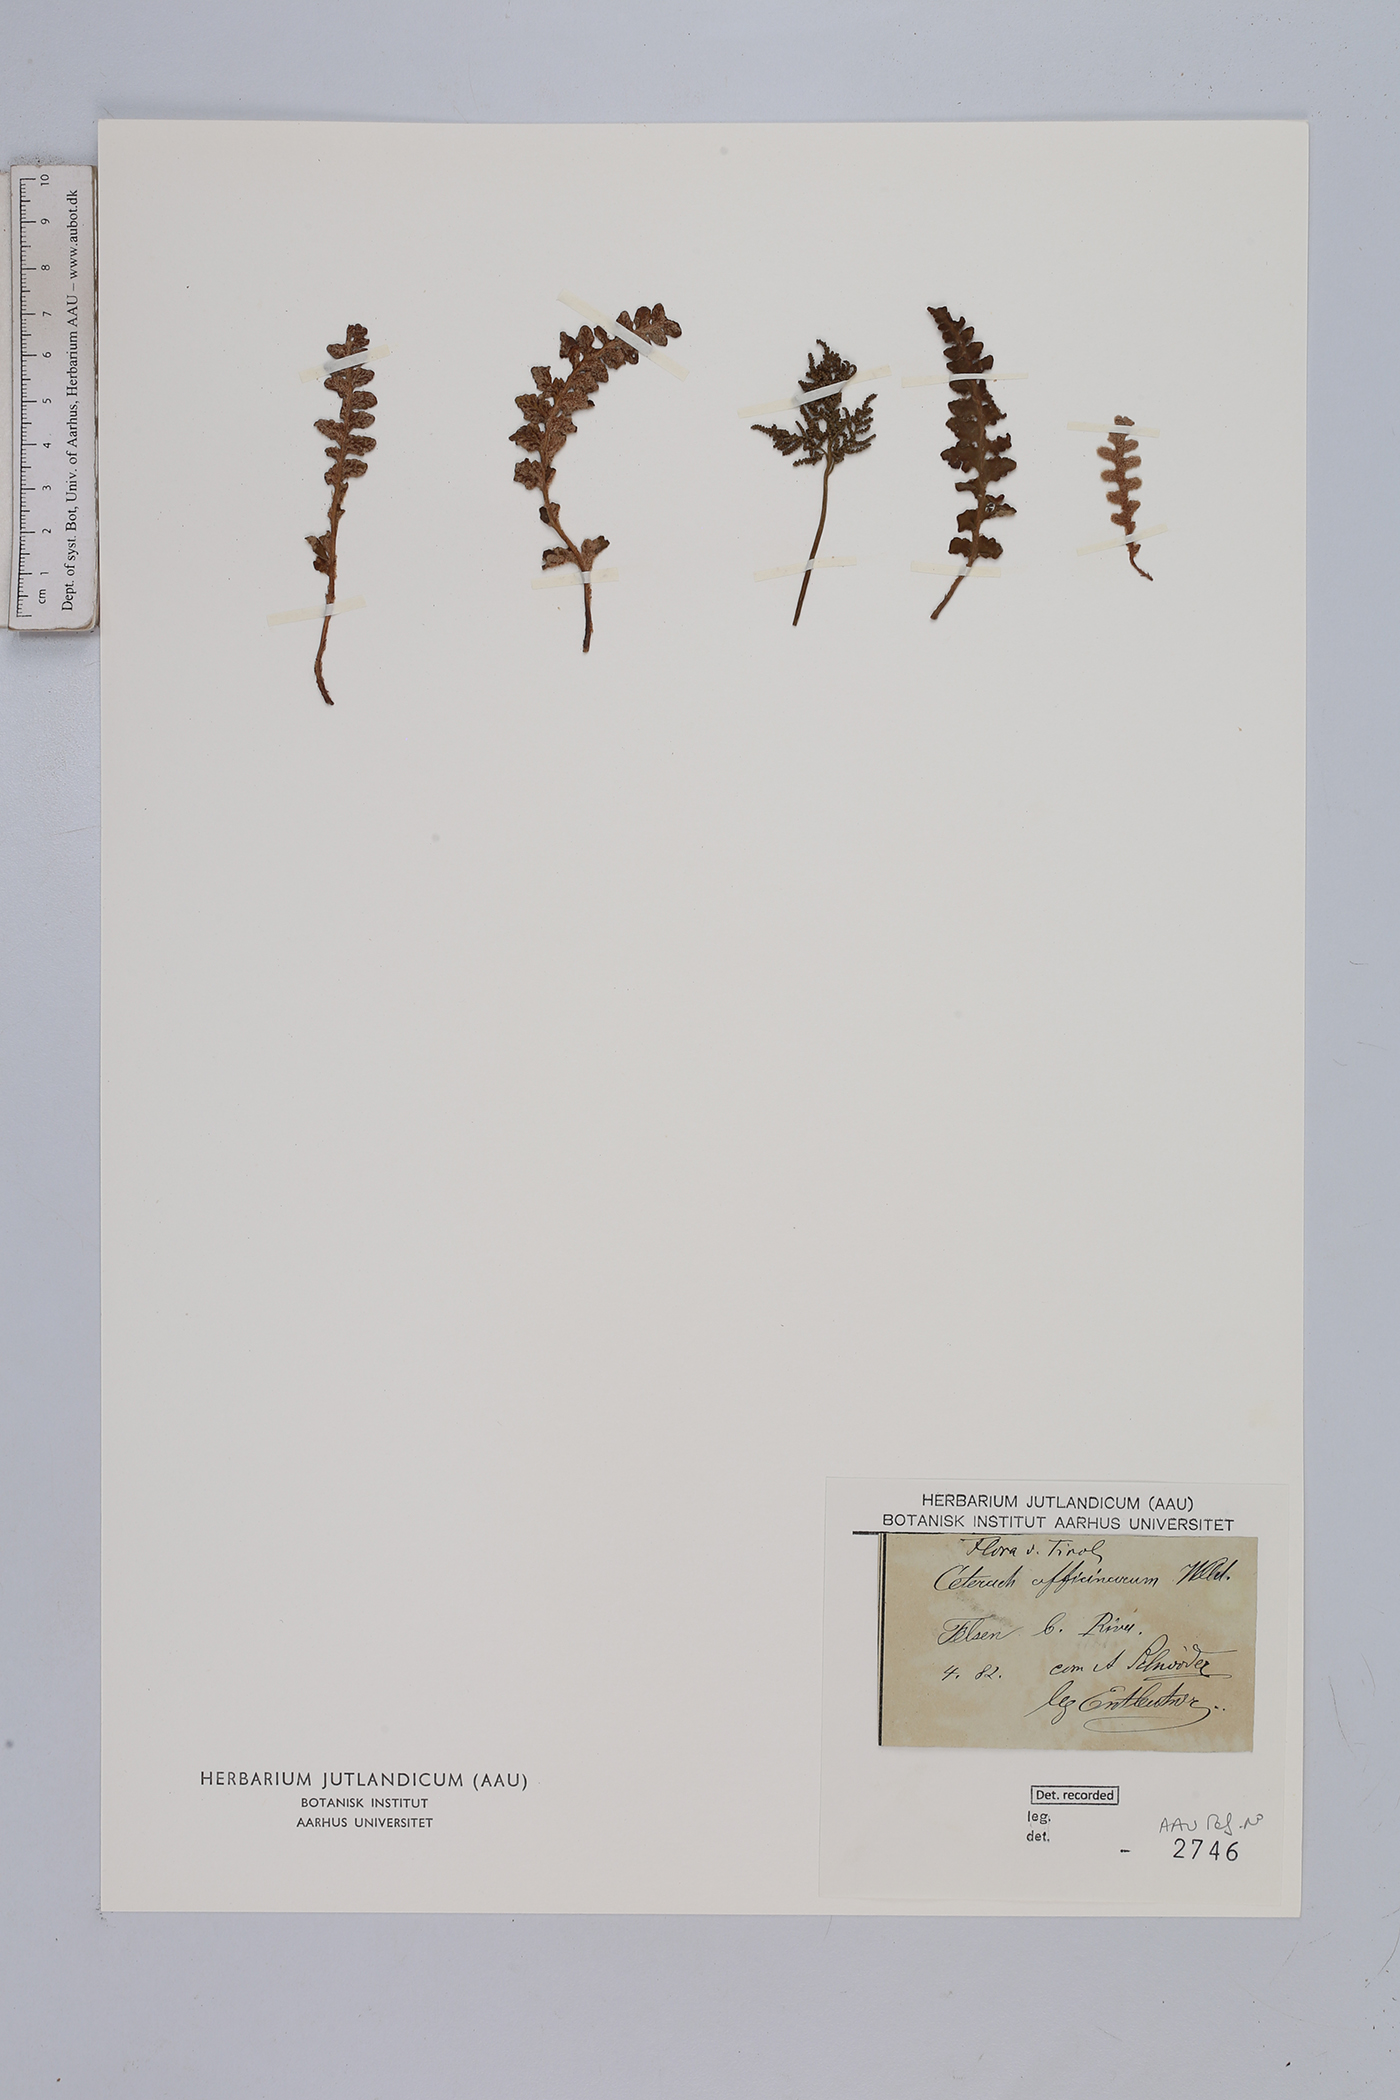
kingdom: Plantae
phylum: Tracheophyta
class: Polypodiopsida
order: Polypodiales
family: Aspleniaceae
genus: Asplenium
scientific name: Asplenium ceterach
